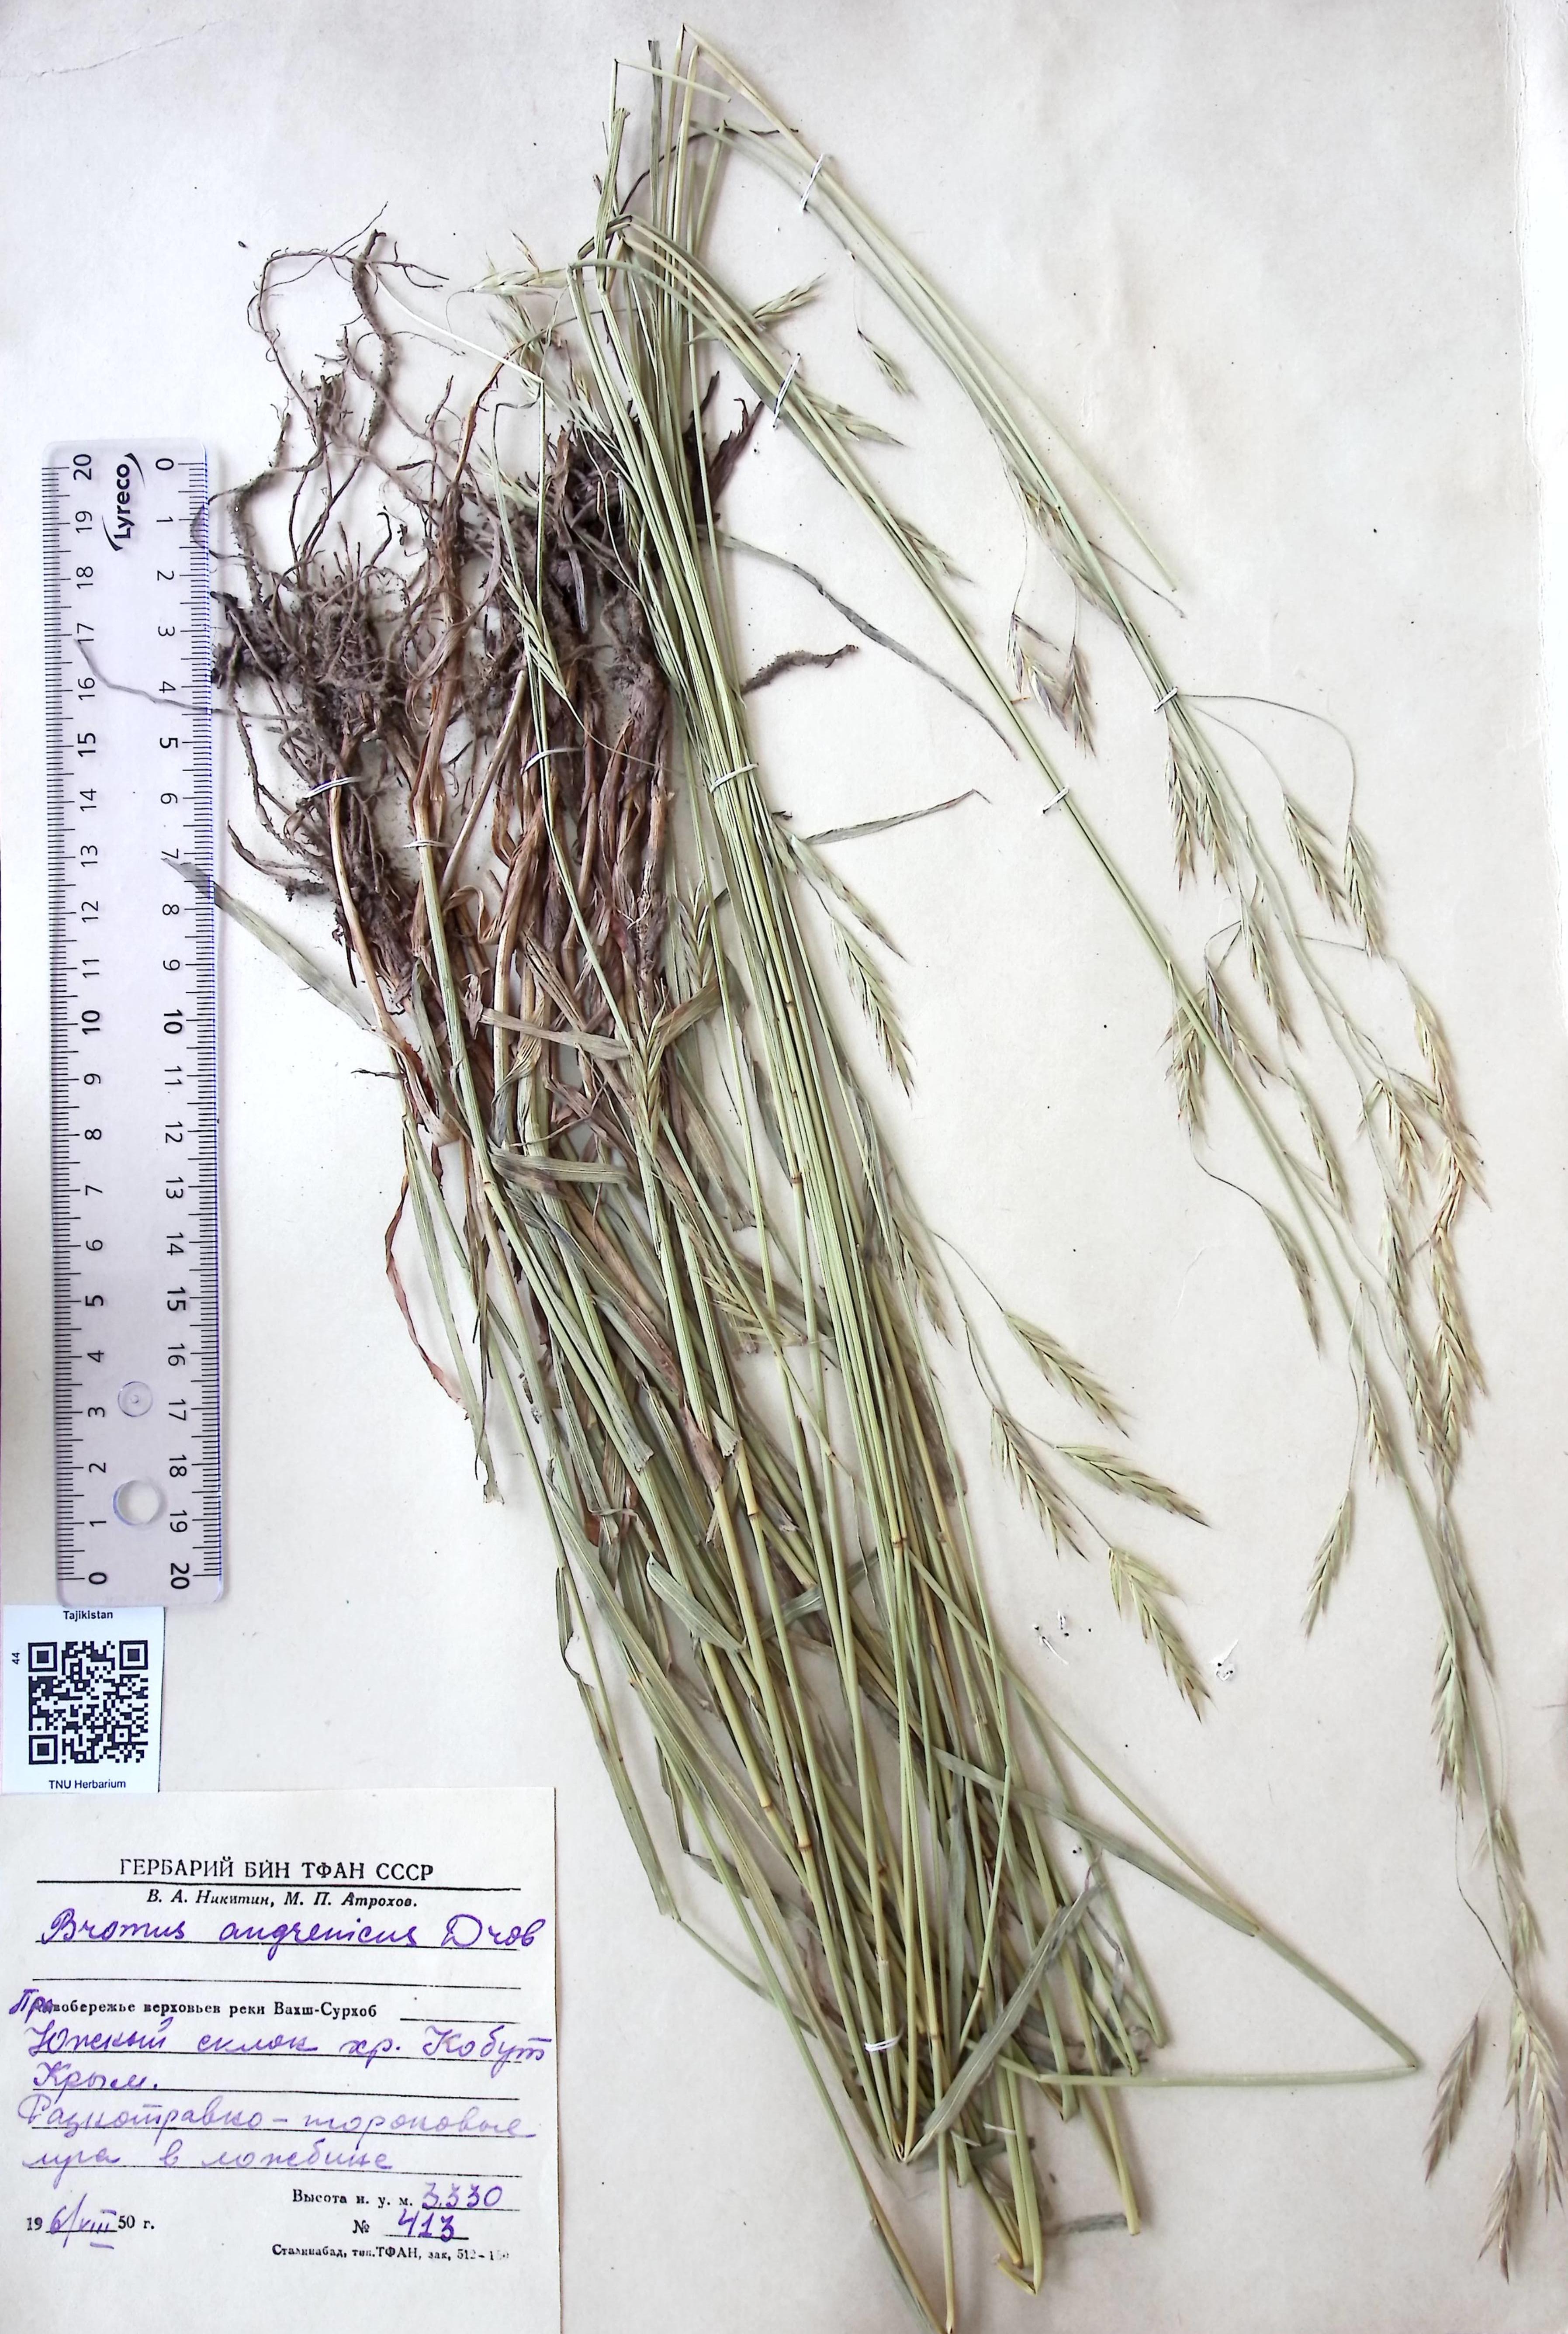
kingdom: Plantae
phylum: Tracheophyta
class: Liliopsida
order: Poales
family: Poaceae
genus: Bromus
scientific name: Bromus paulsenii
